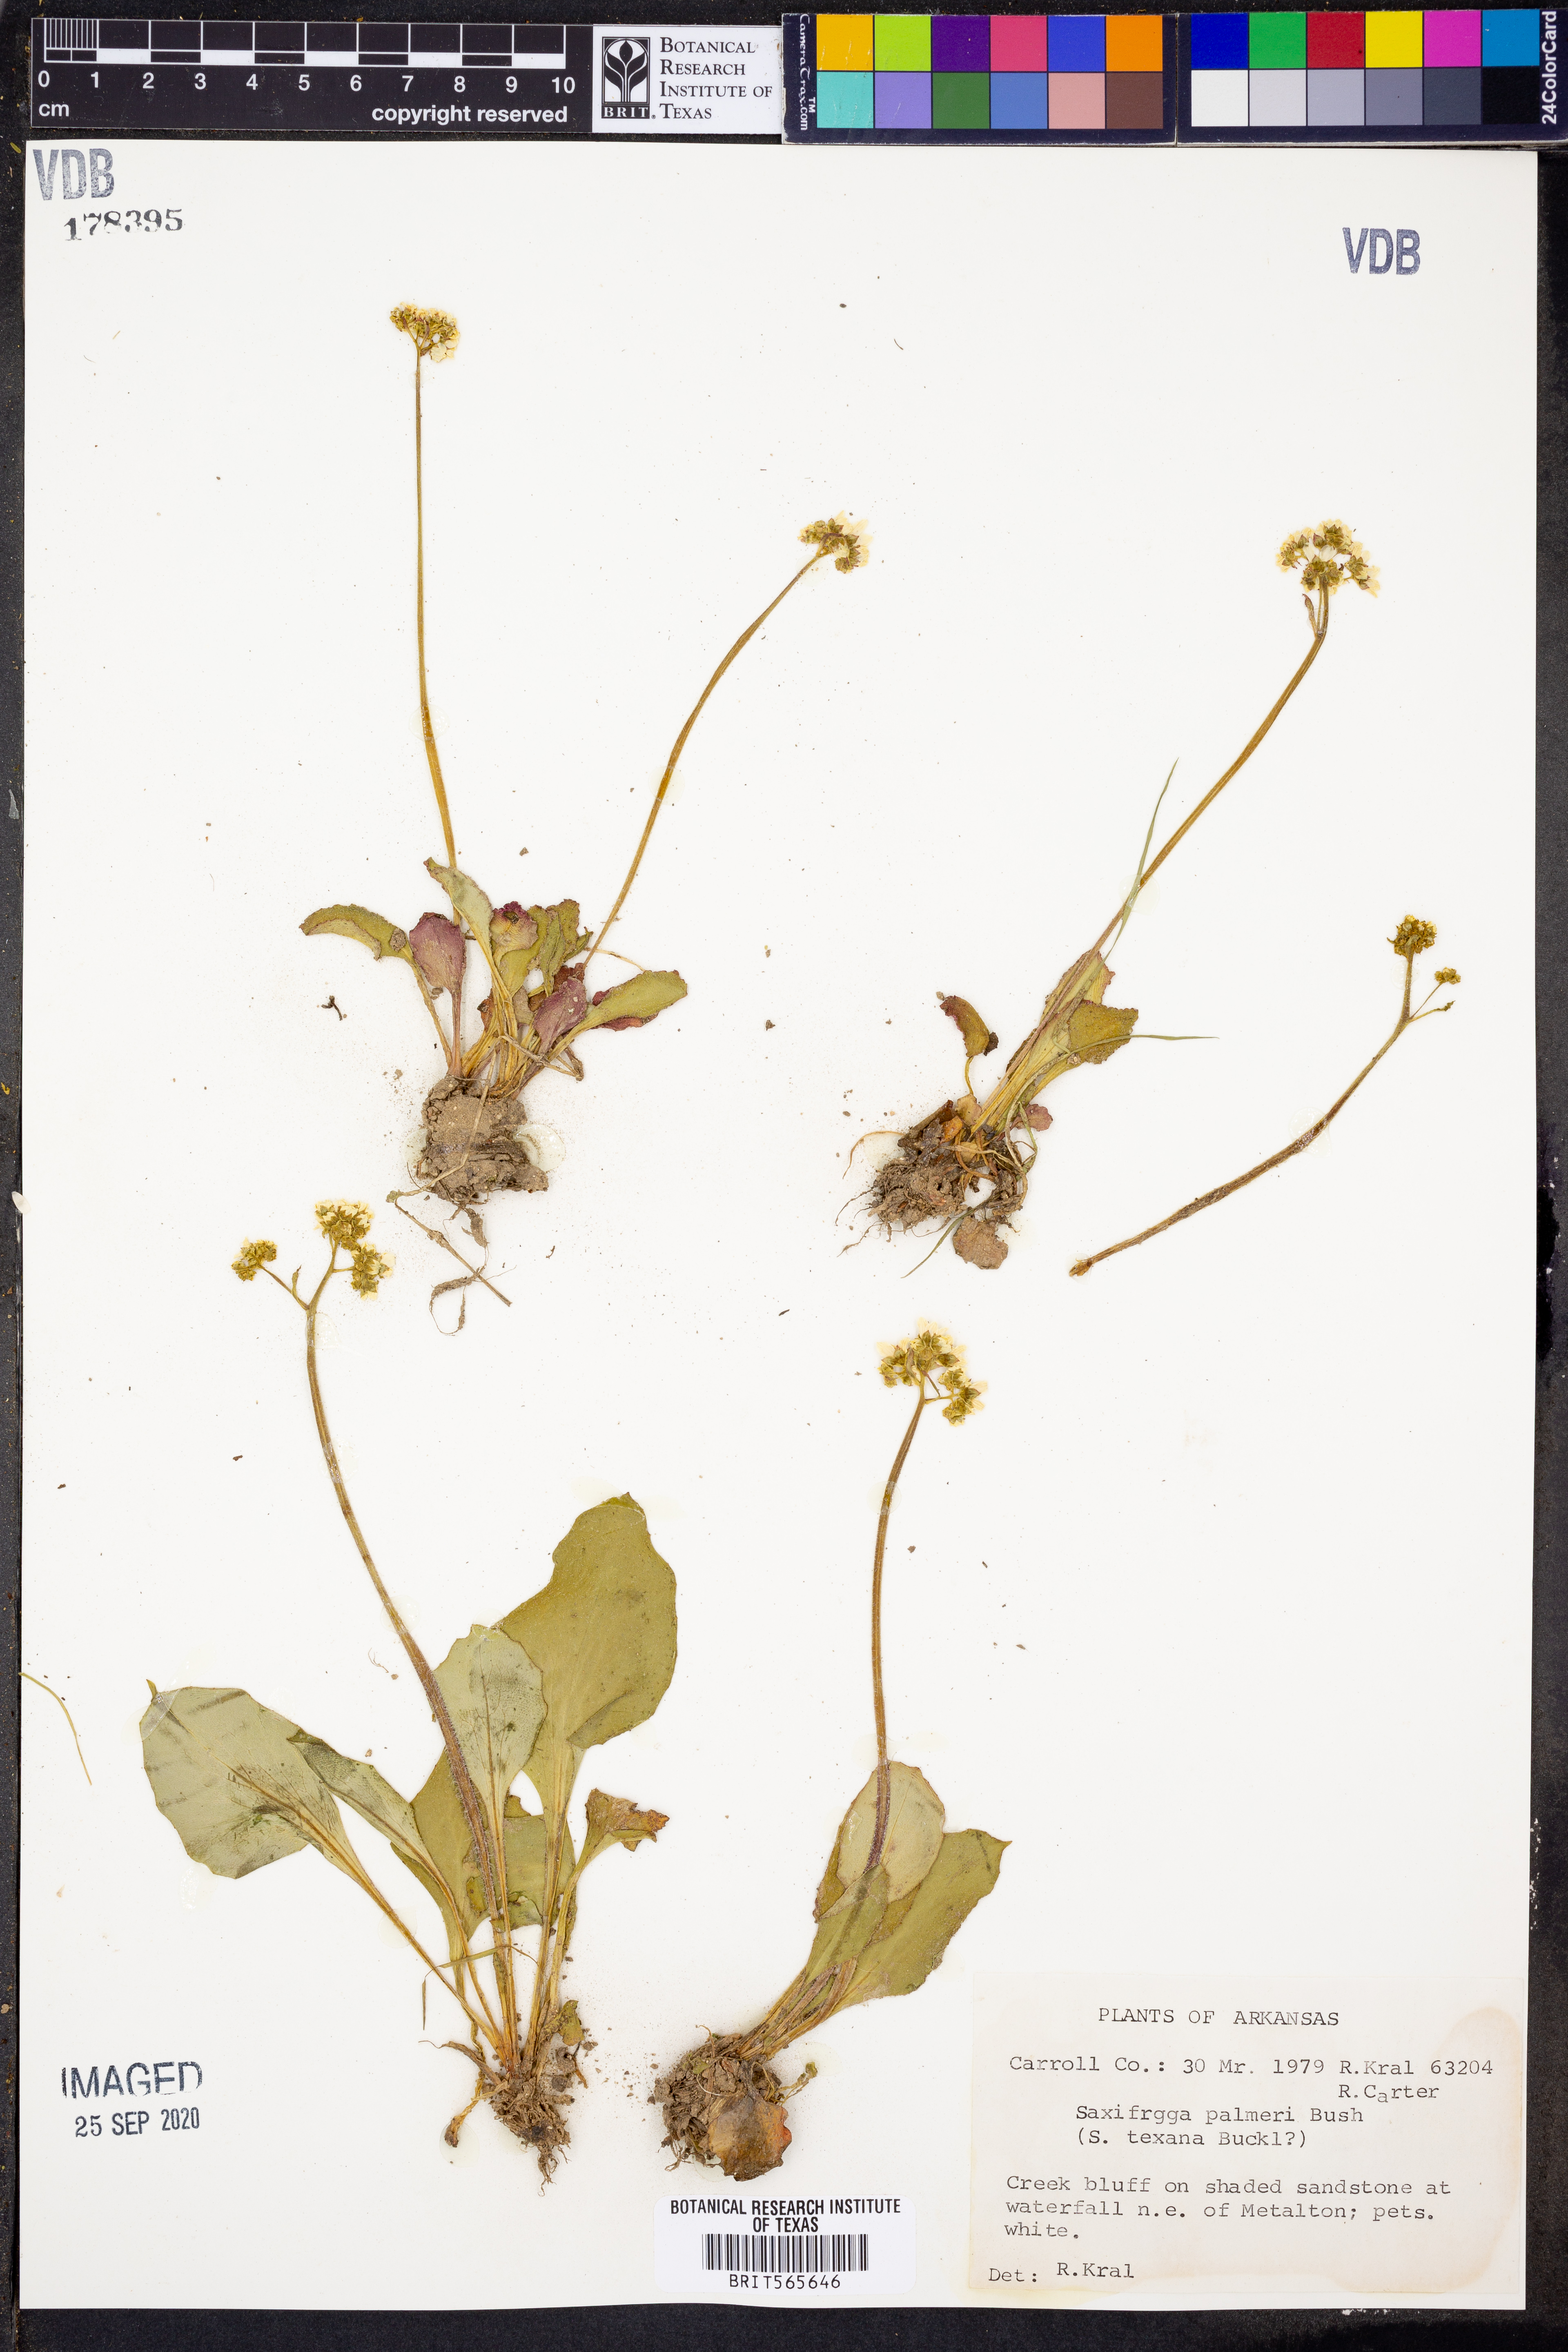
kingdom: Plantae
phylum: Tracheophyta
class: Magnoliopsida
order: Saxifragales
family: Saxifragaceae
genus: Micranthes
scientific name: Micranthes palmeri
